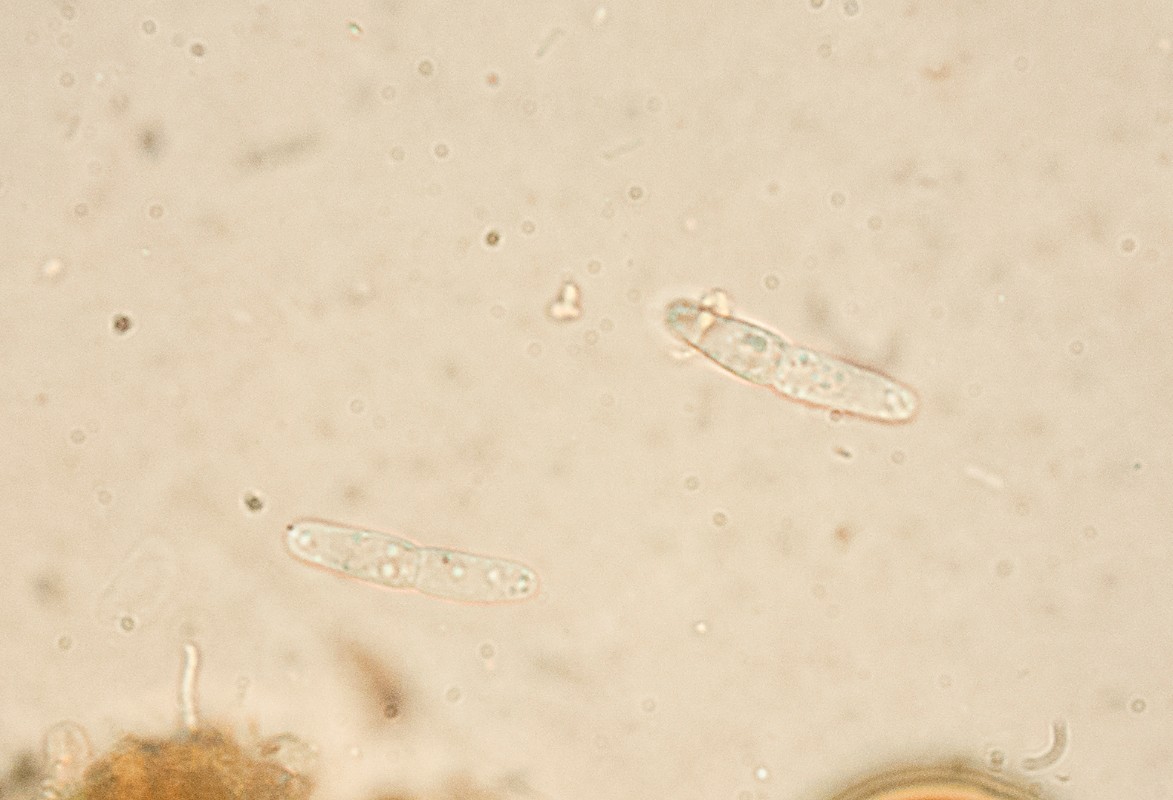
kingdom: Fungi
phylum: Ascomycota
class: Sordariomycetes
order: Hypocreales
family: Bionectriaceae
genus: Nectriopsis
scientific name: Nectriopsis rubefaciens
